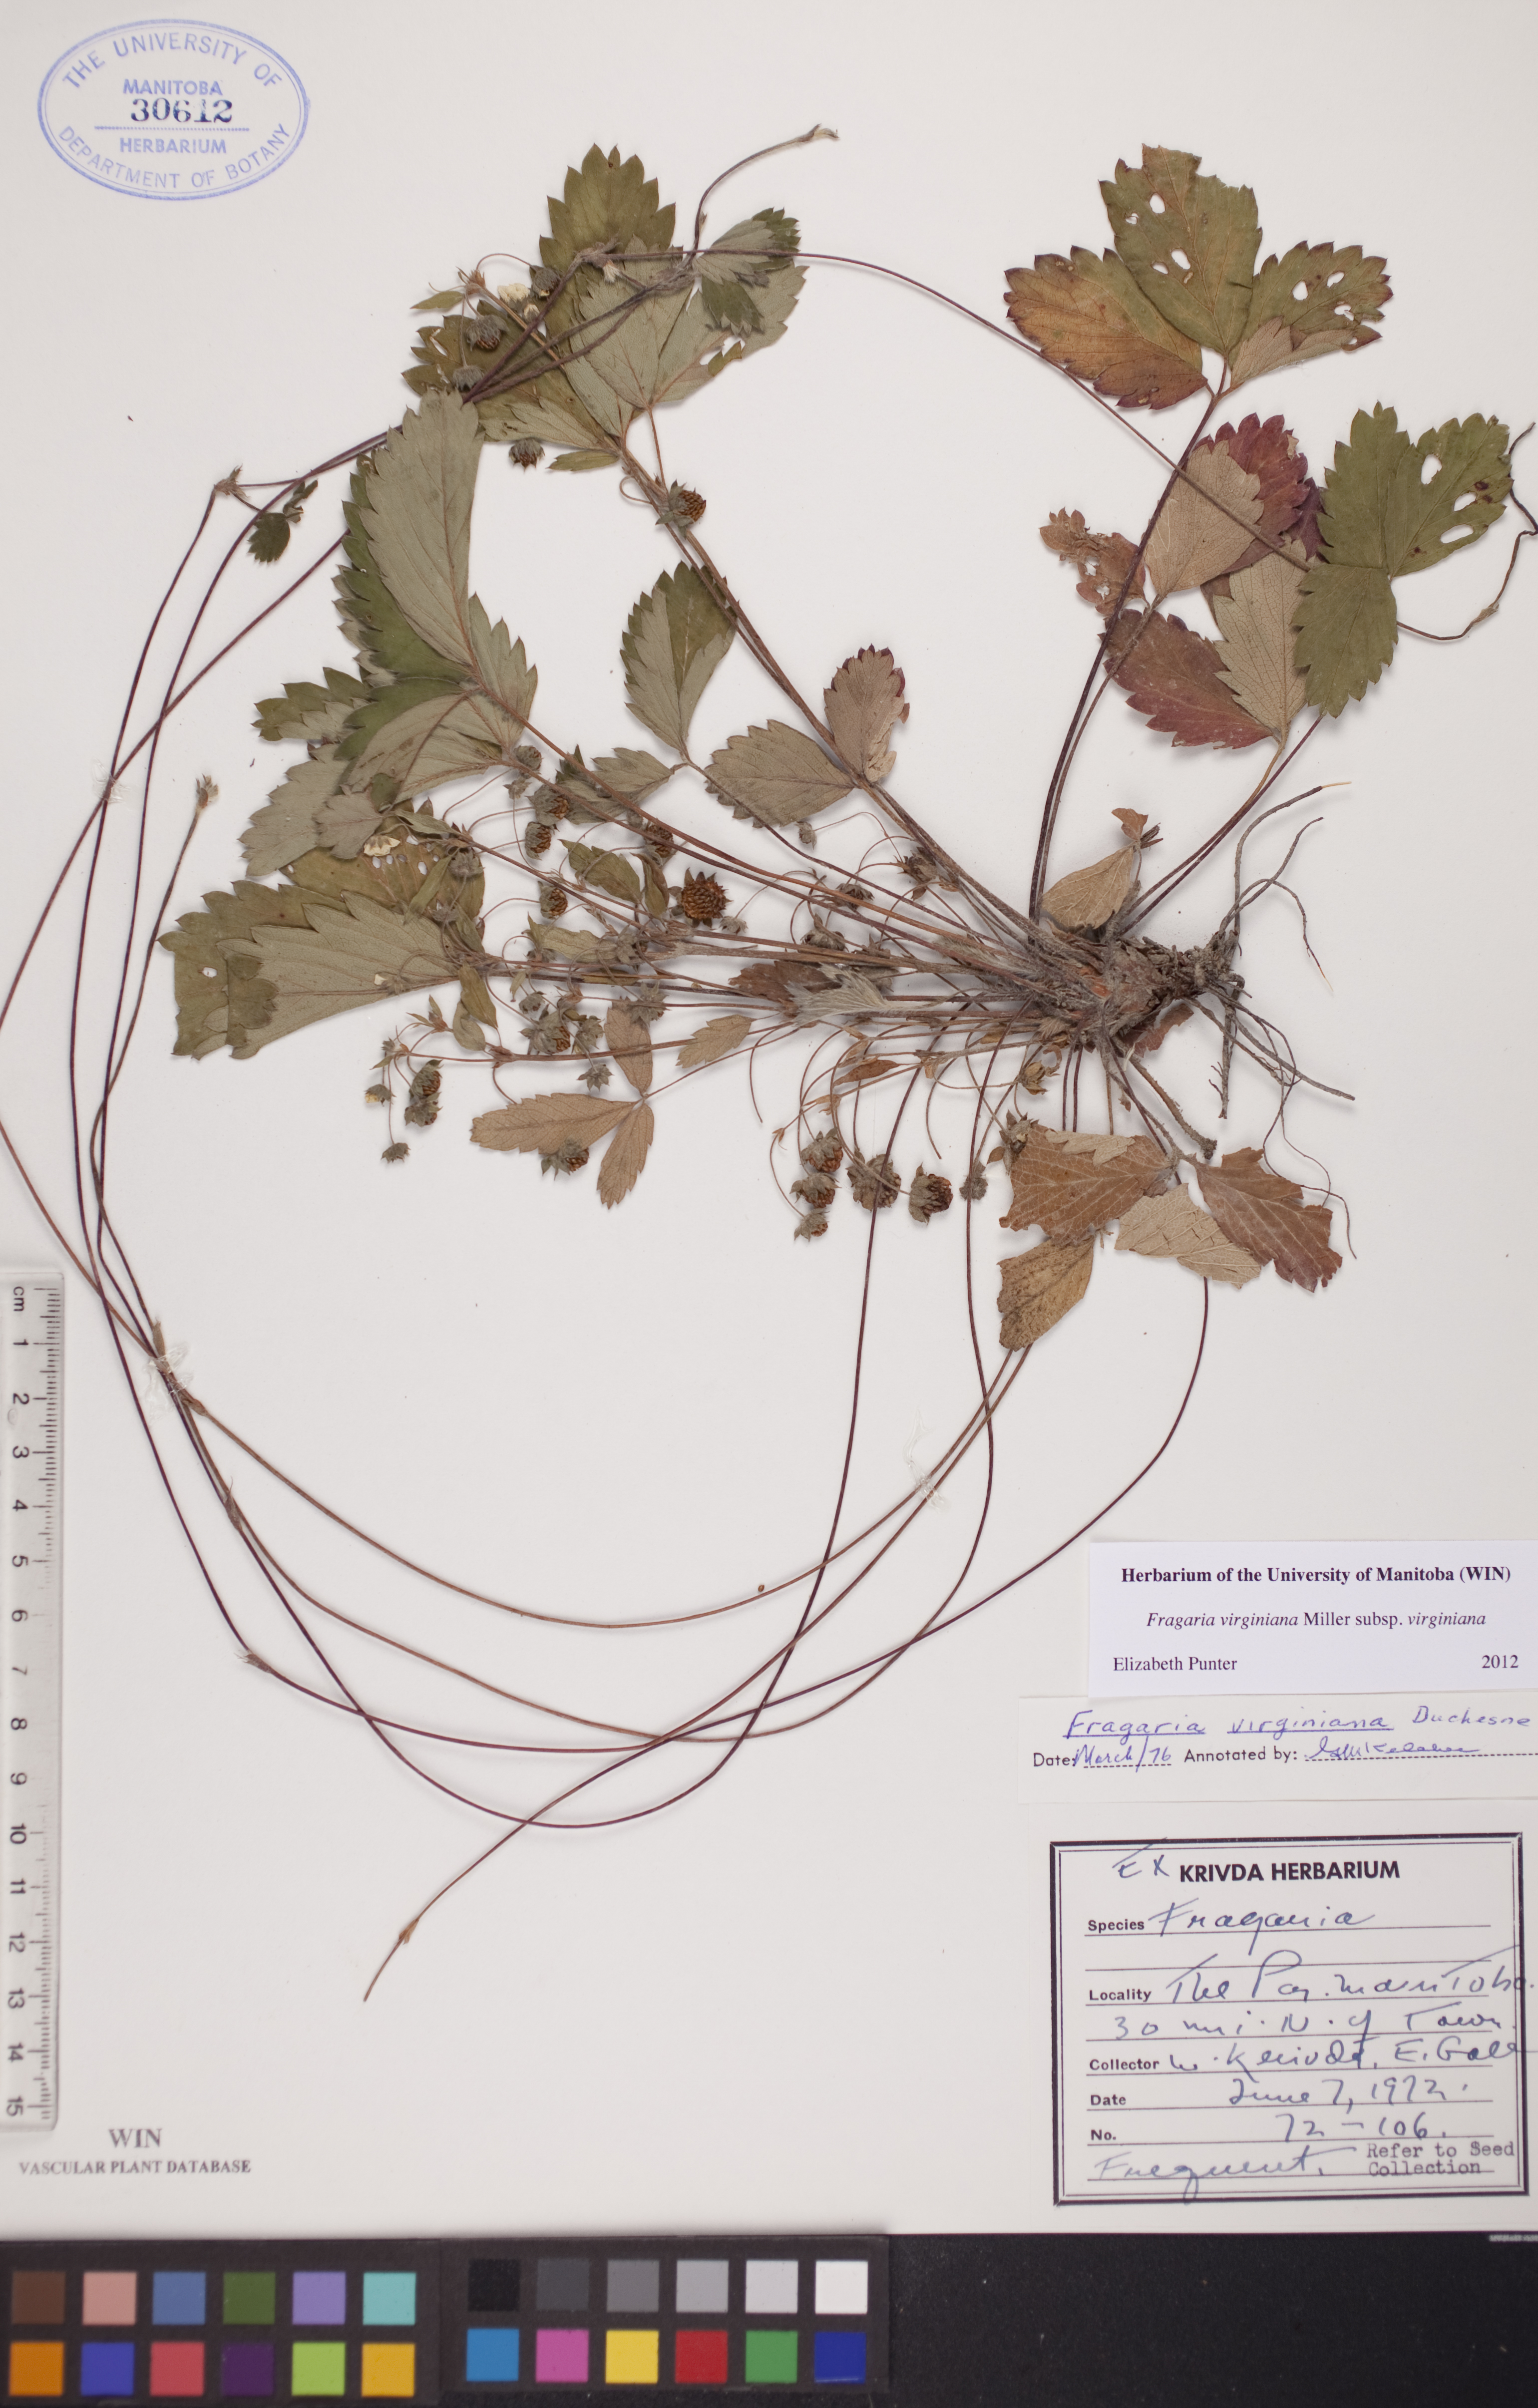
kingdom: Plantae
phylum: Tracheophyta
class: Magnoliopsida
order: Rosales
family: Rosaceae
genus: Fragaria
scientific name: Fragaria virginiana
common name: Thickleaved wild strawberry
